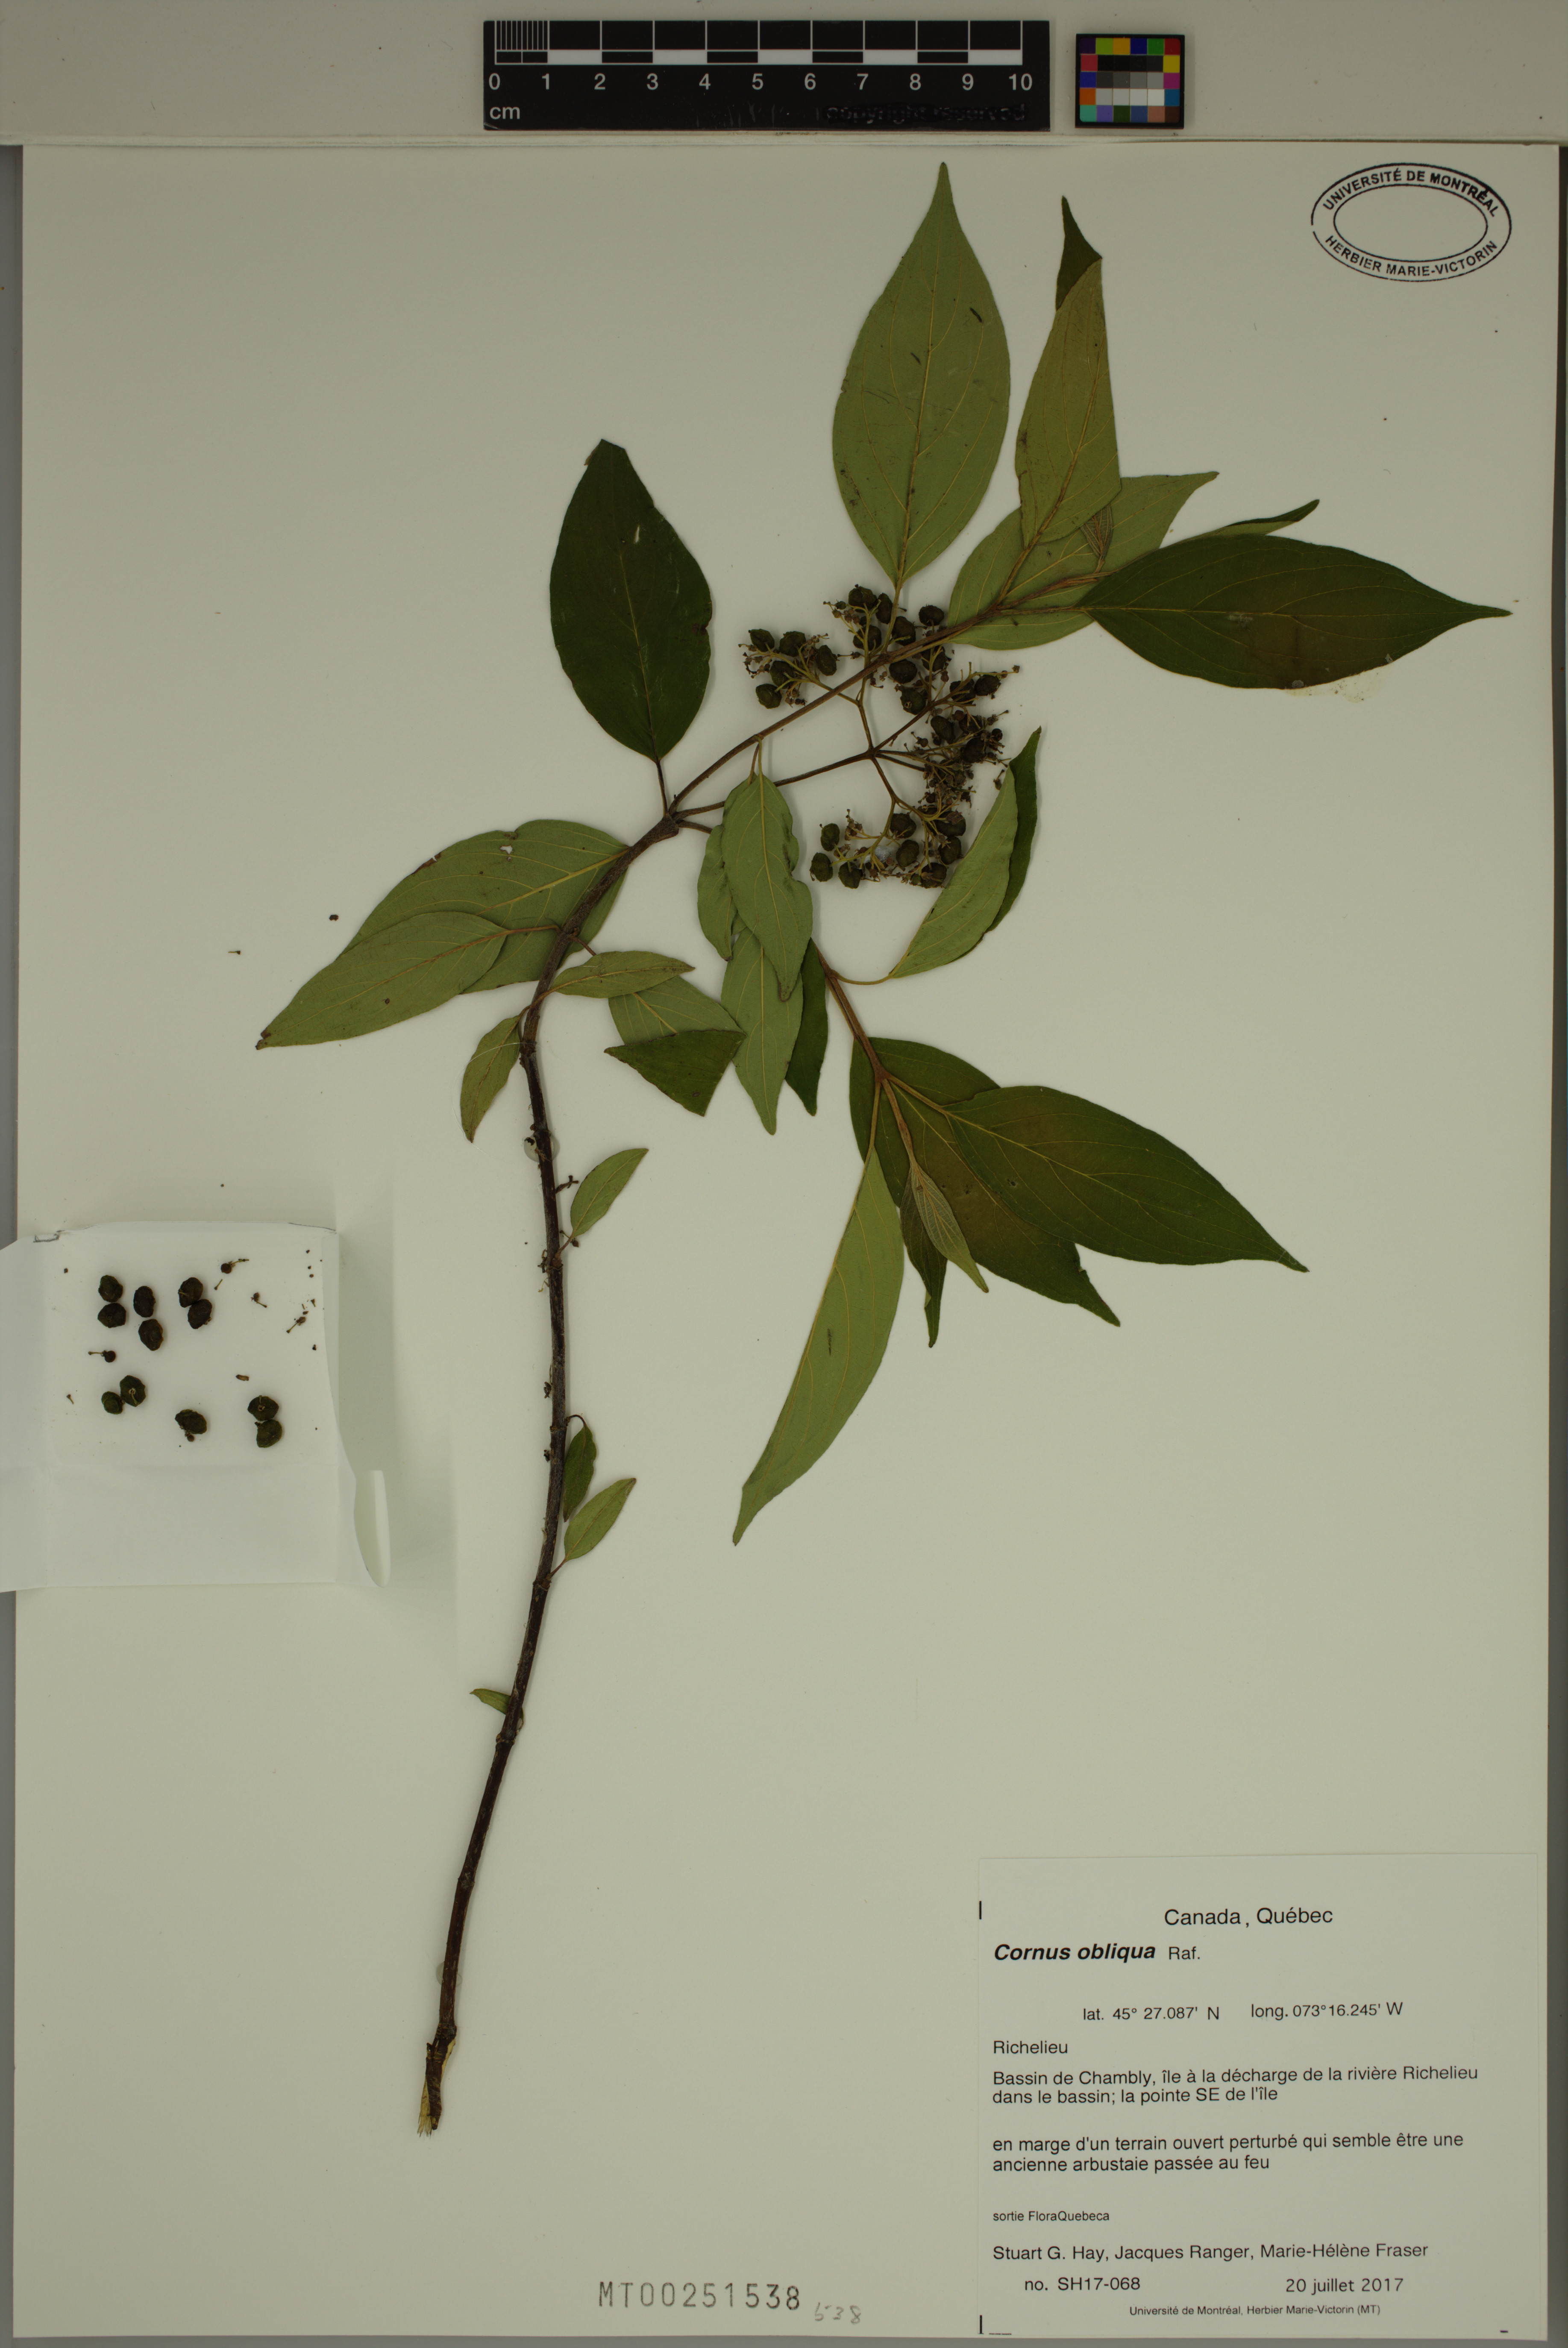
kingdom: Plantae
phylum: Tracheophyta
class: Magnoliopsida
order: Cornales
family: Cornaceae
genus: Cornus
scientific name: Cornus obliqua
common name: Pale dogwood
